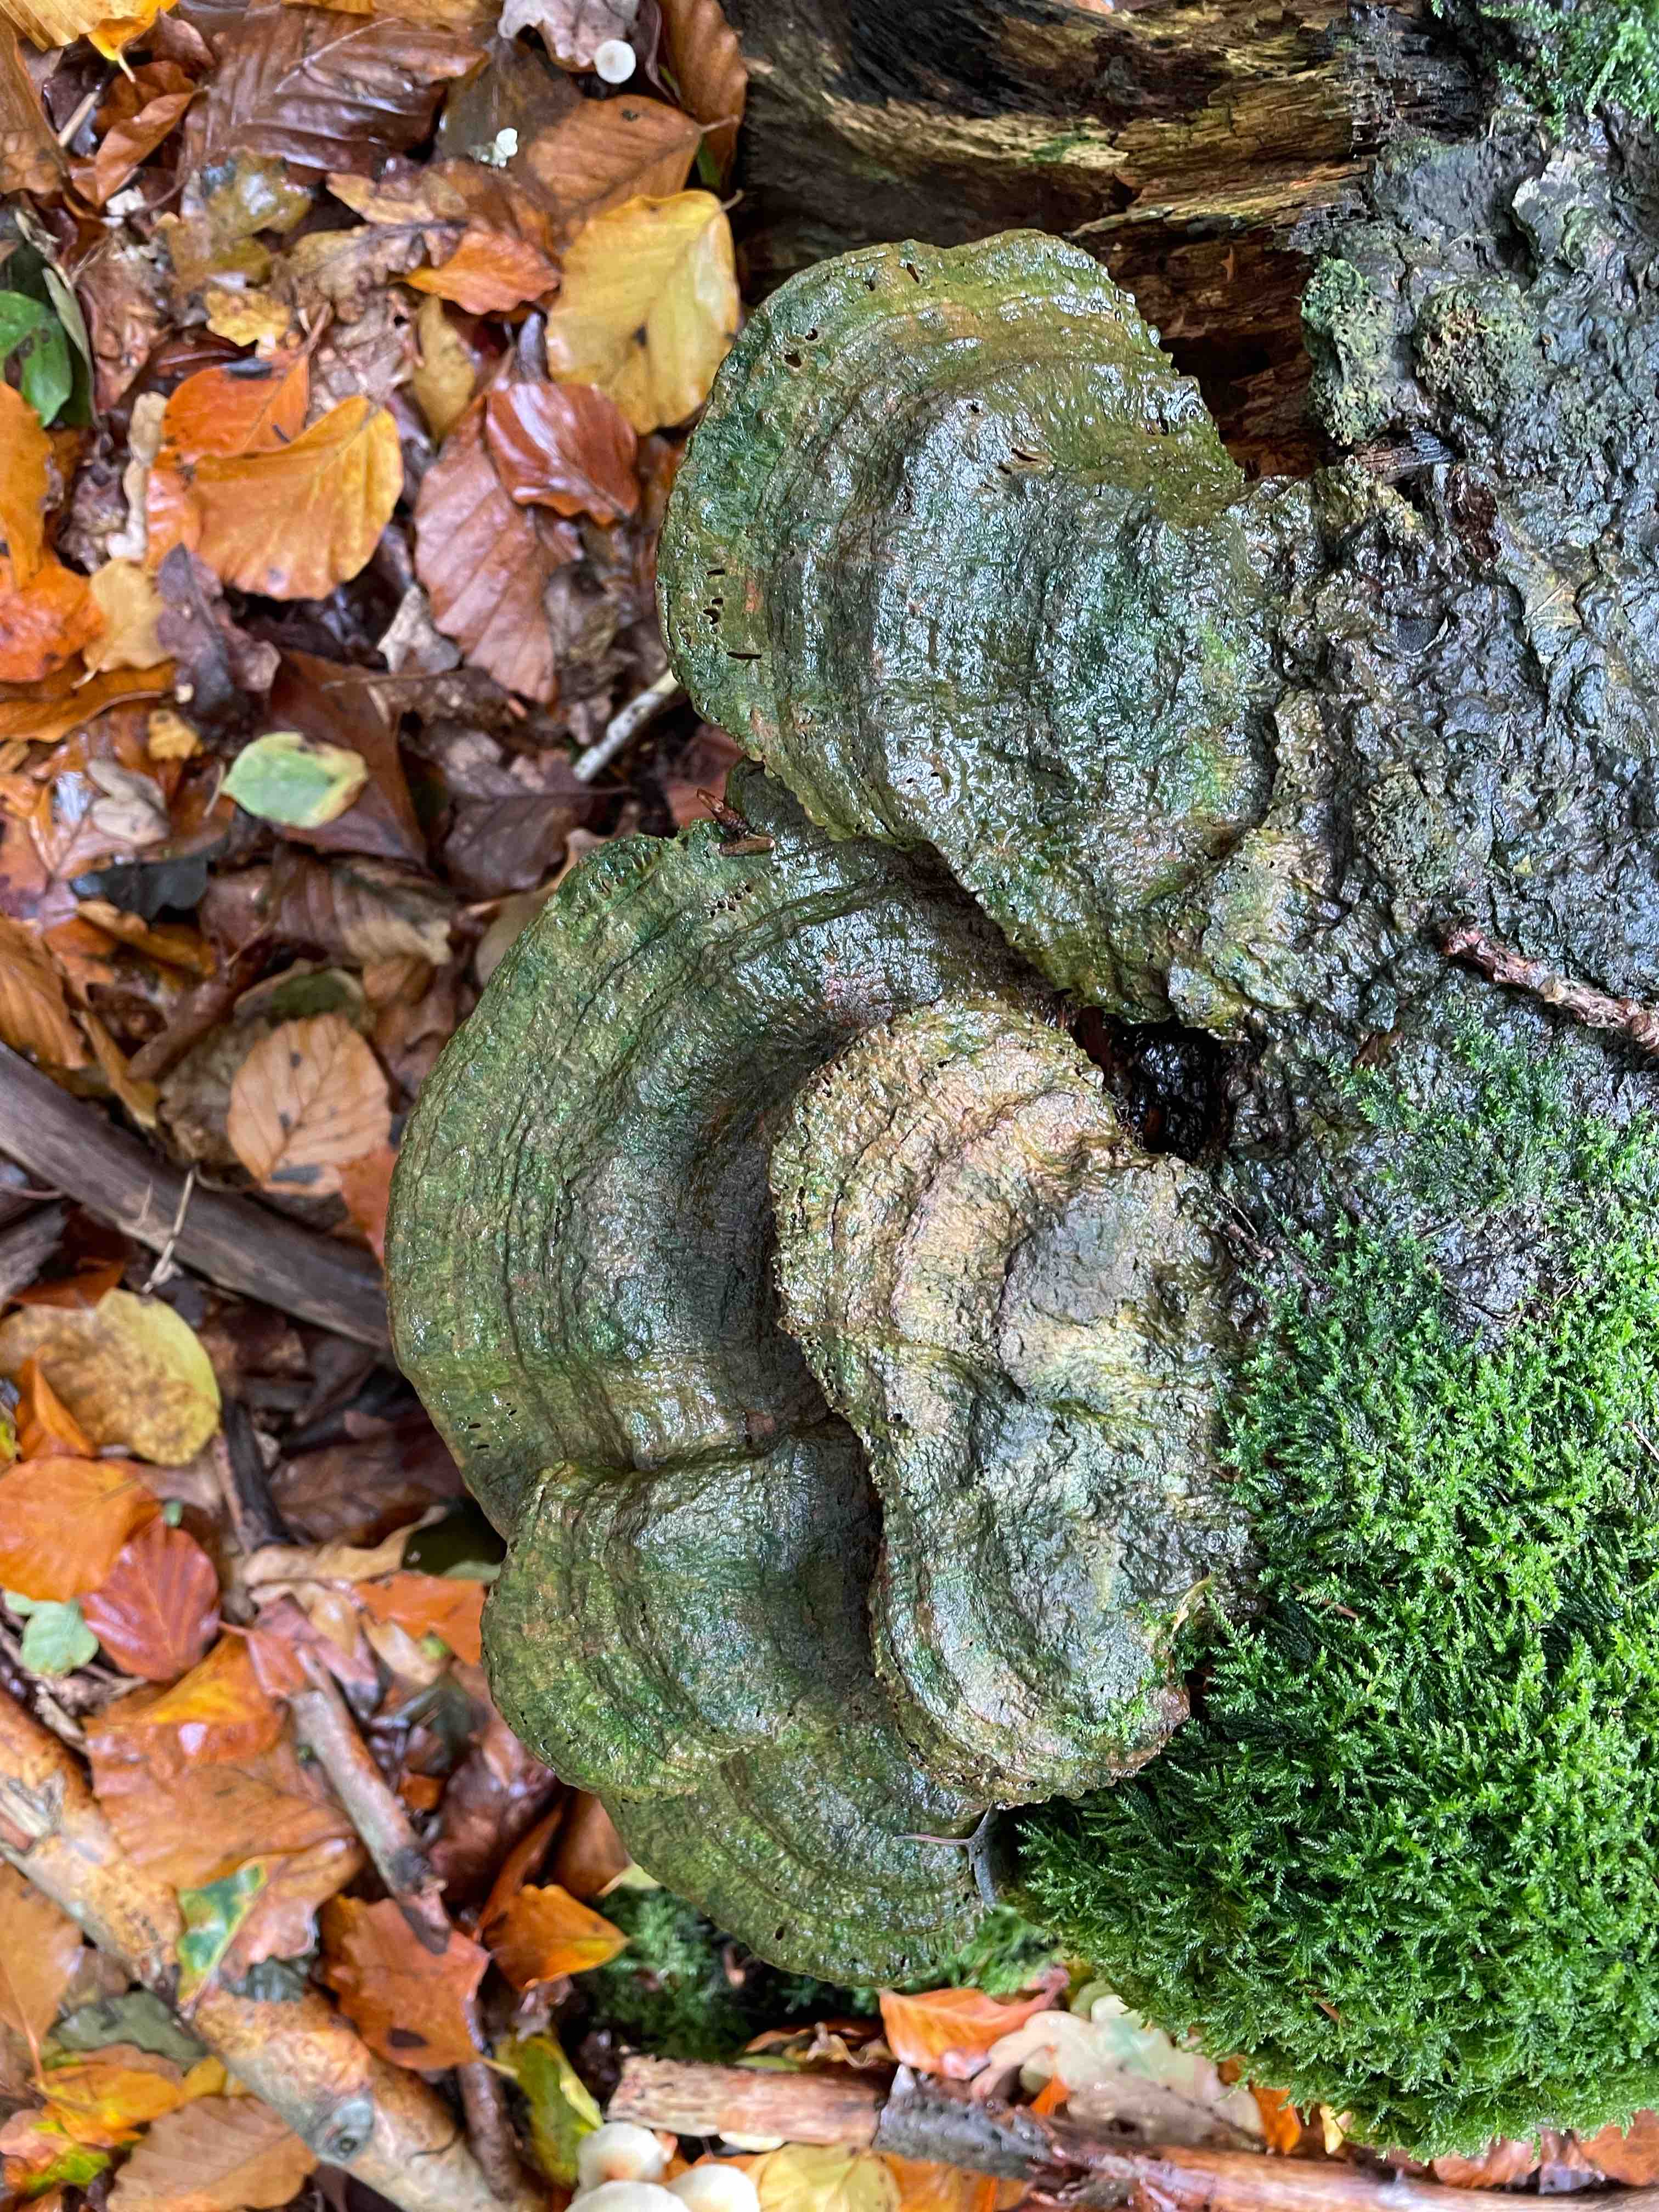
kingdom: Fungi
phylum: Basidiomycota
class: Agaricomycetes
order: Polyporales
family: Fomitopsidaceae
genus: Daedalea
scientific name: Daedalea quercina
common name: ege-labyrintsvamp
